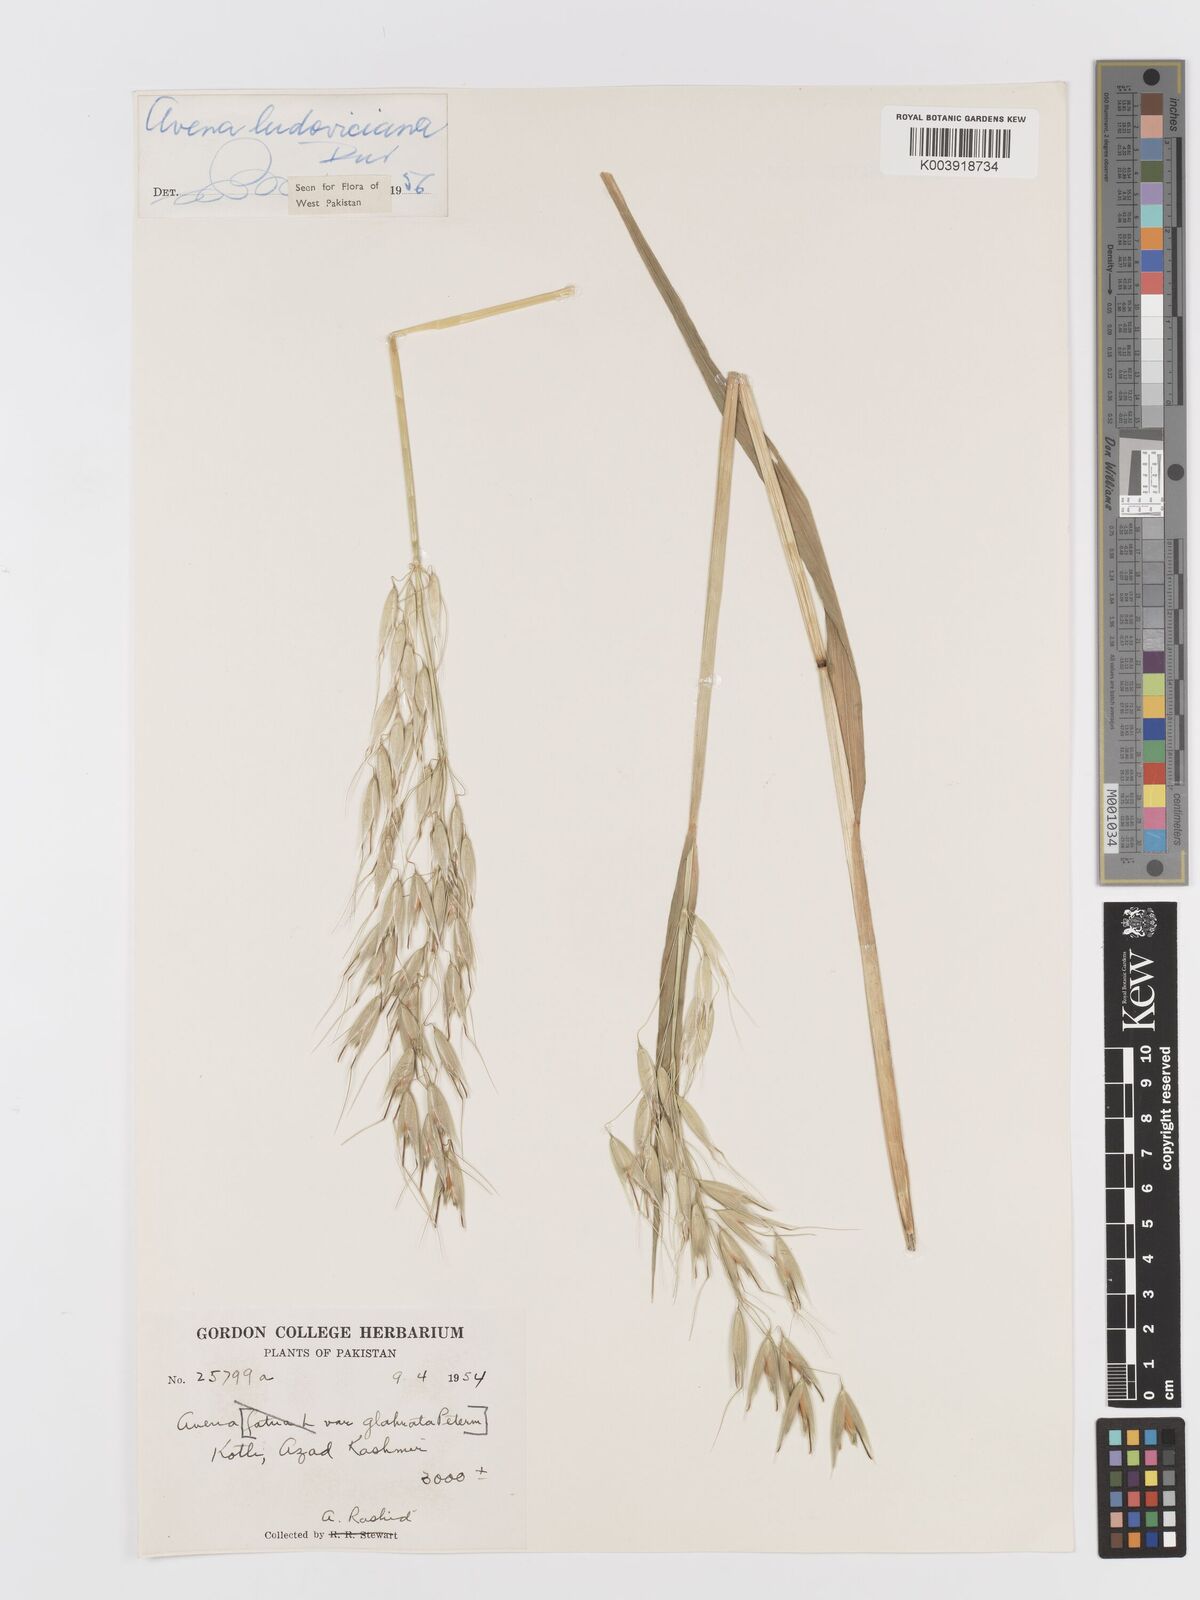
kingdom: Plantae
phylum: Tracheophyta
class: Liliopsida
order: Poales
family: Poaceae
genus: Avena
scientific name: Avena sterilis
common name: Animated oat
